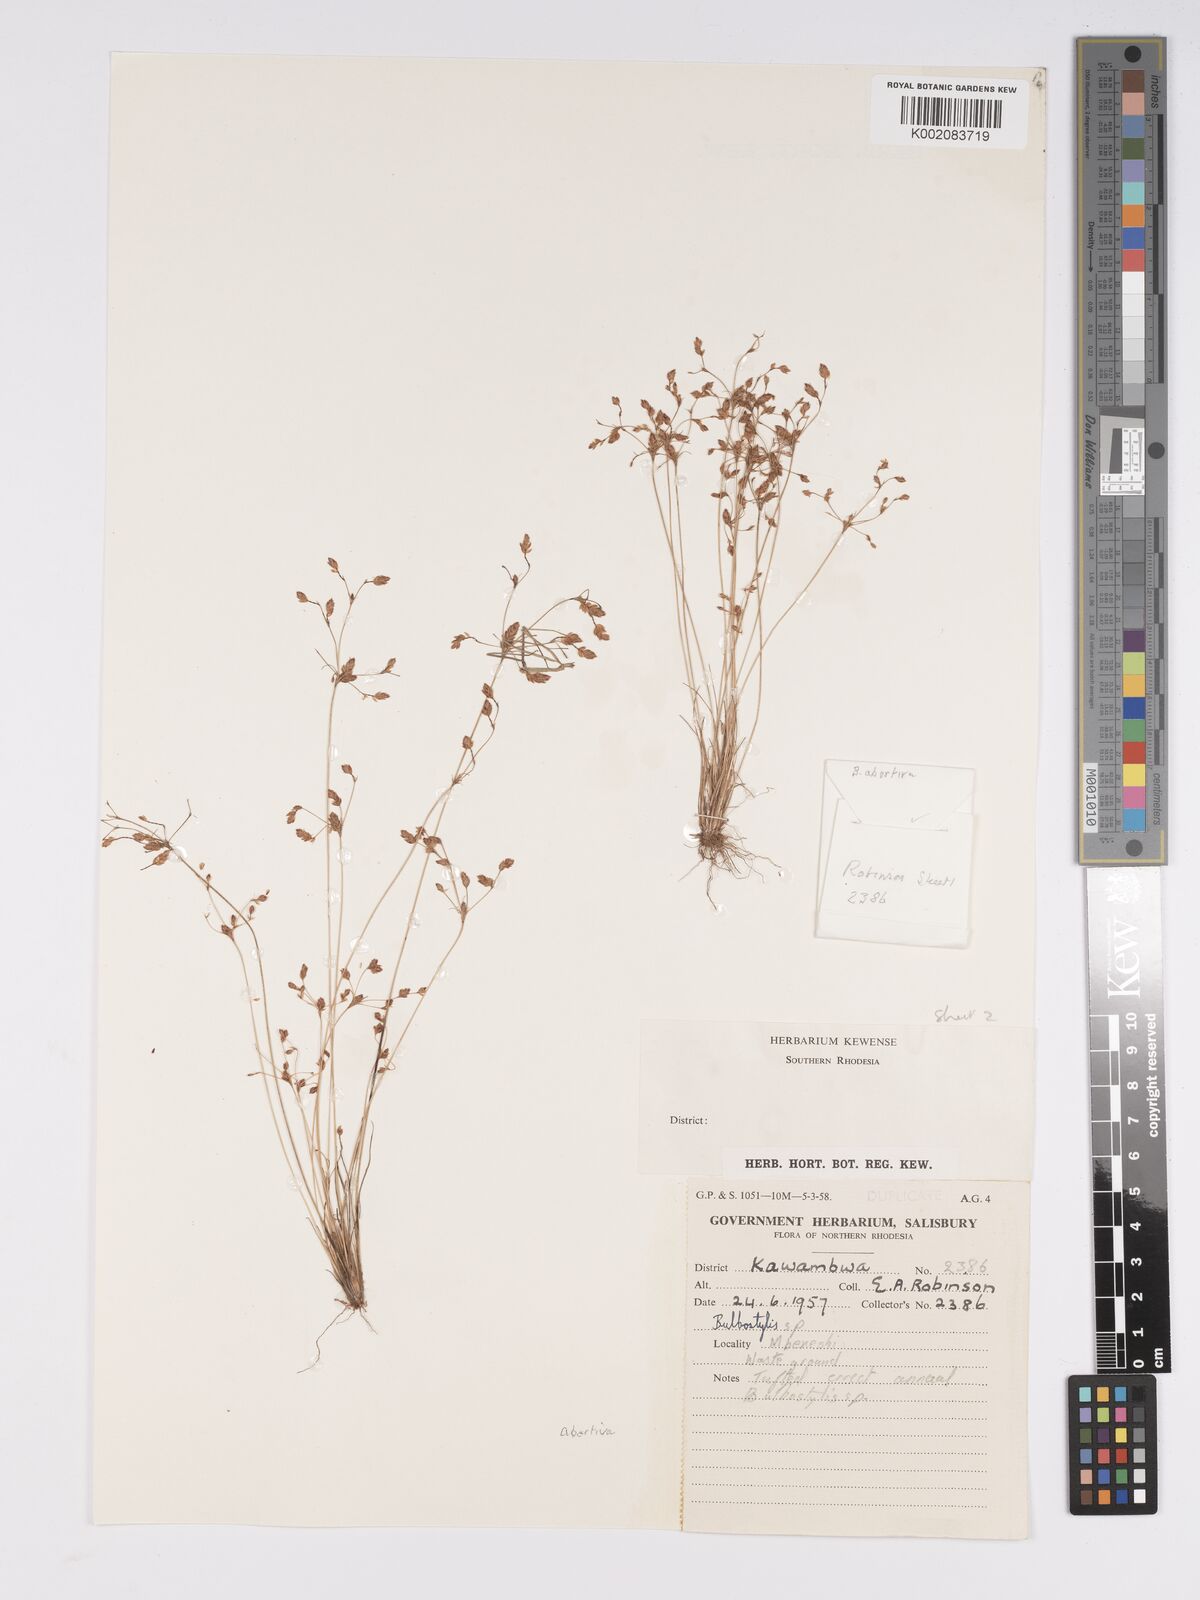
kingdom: Plantae
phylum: Tracheophyta
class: Liliopsida
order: Poales
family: Cyperaceae
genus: Bulbostylis
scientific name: Bulbostylis abortiva
